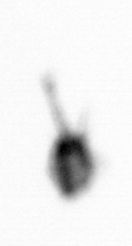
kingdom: Animalia
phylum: Arthropoda
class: Copepoda
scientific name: Copepoda
